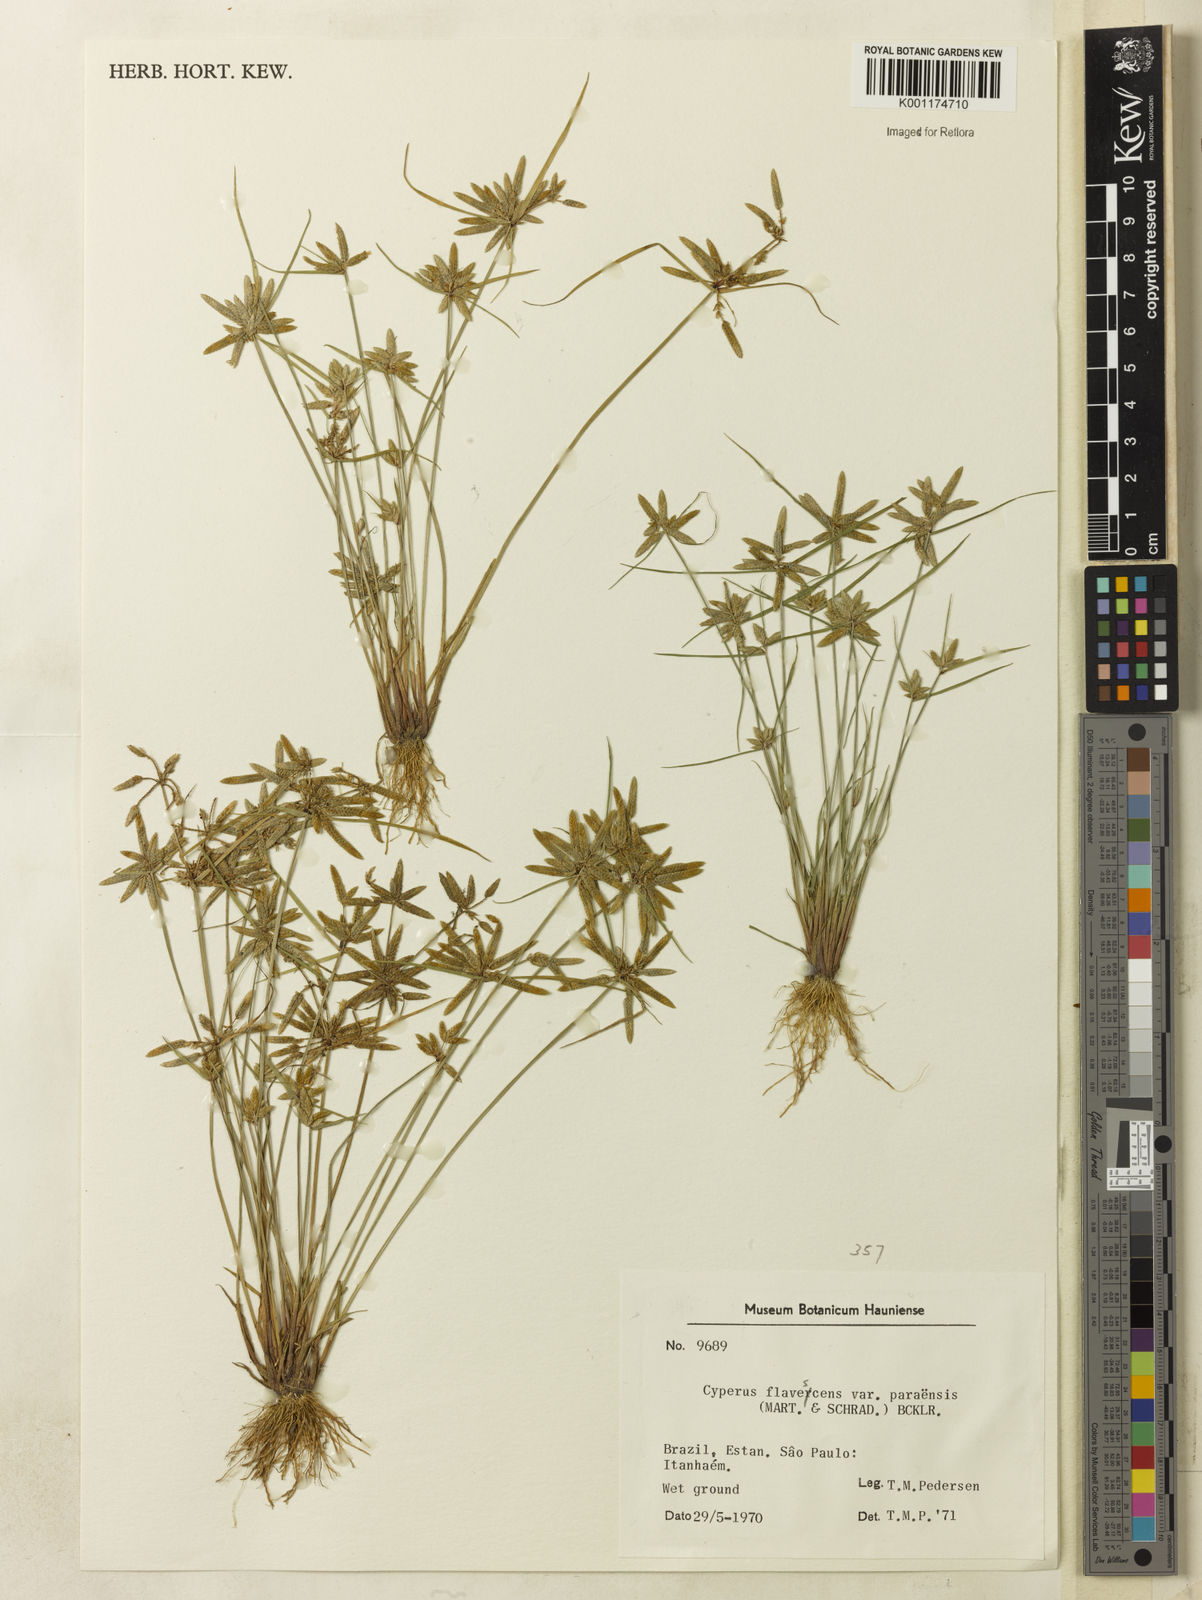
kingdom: Plantae
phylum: Tracheophyta
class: Liliopsida
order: Poales
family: Cyperaceae
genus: Cyperus
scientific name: Cyperus flavescens
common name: Yellow galingale
